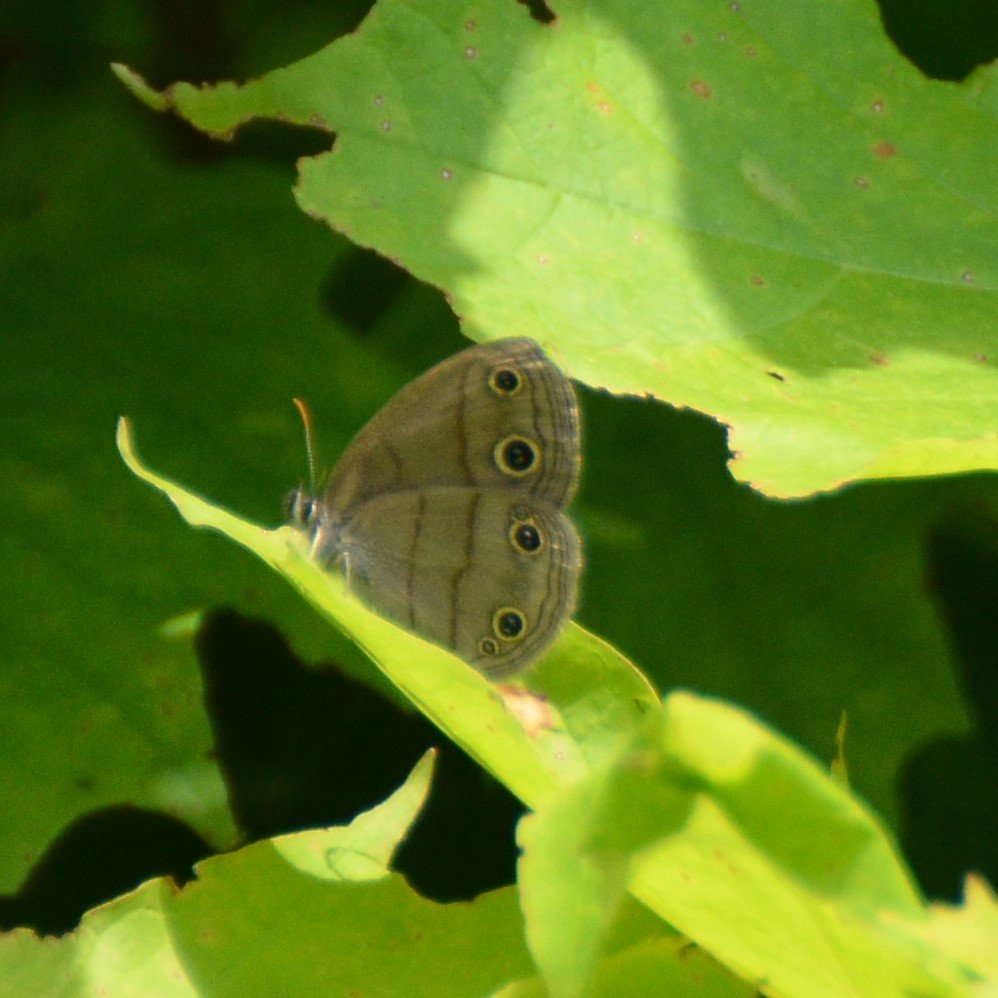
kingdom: Animalia
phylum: Arthropoda
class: Insecta
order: Lepidoptera
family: Nymphalidae
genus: Euptychia
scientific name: Euptychia cymela
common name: Little Wood Satyr
